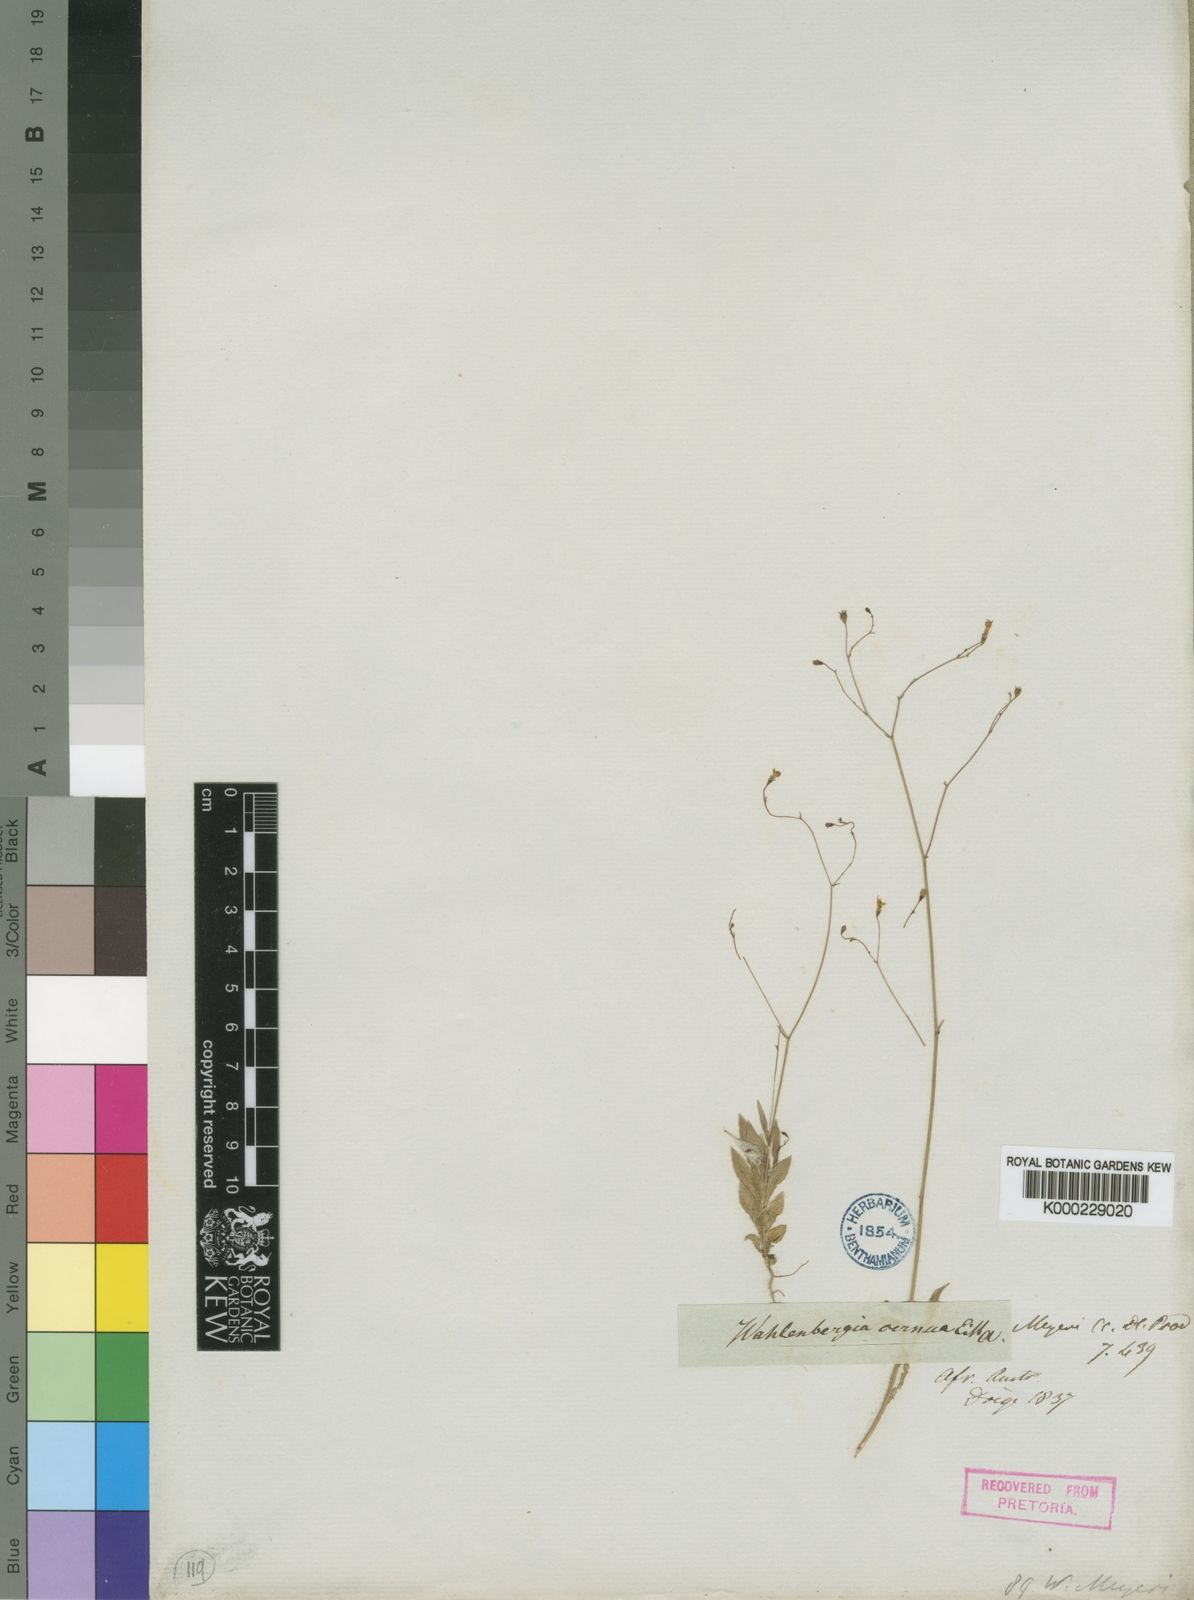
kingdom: Plantae
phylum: Tracheophyta
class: Magnoliopsida
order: Asterales
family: Campanulaceae
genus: Wahlenbergia
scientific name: Wahlenbergia meyeri
